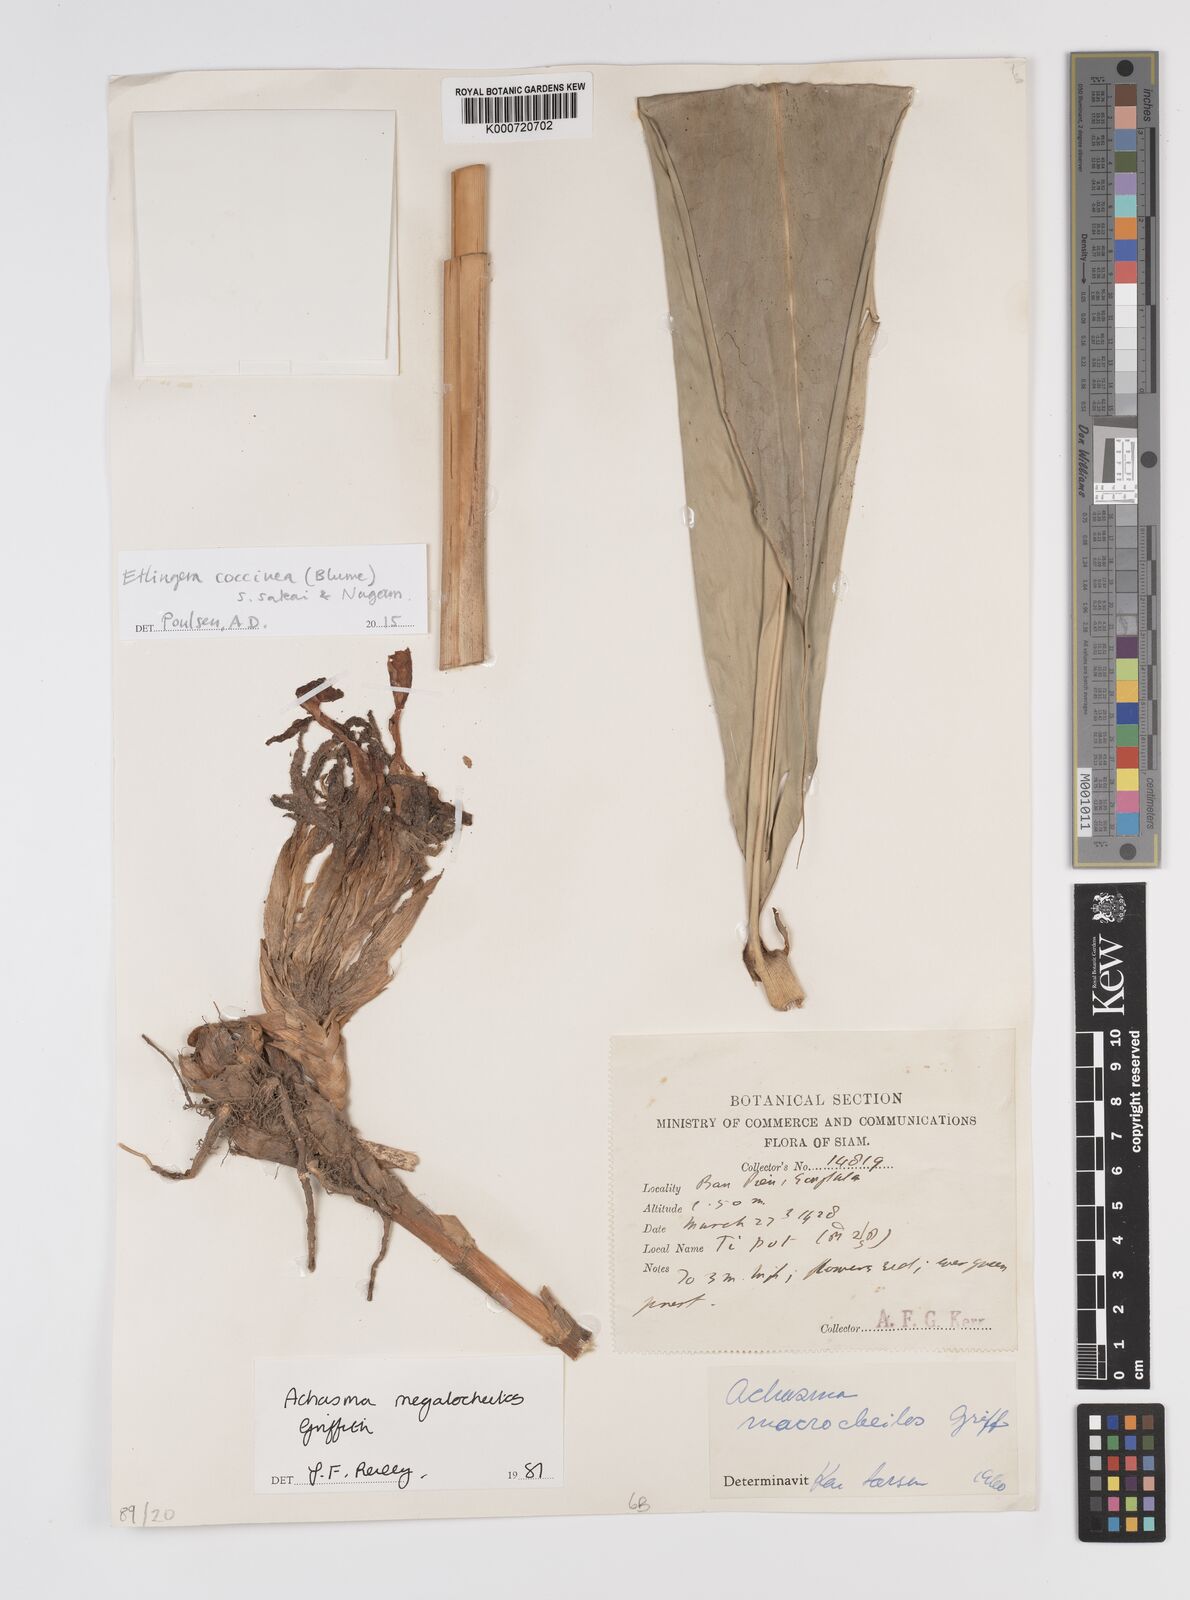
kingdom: Plantae
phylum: Tracheophyta
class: Liliopsida
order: Zingiberales
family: Zingiberaceae
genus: Etlingera
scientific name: Etlingera coccinea
